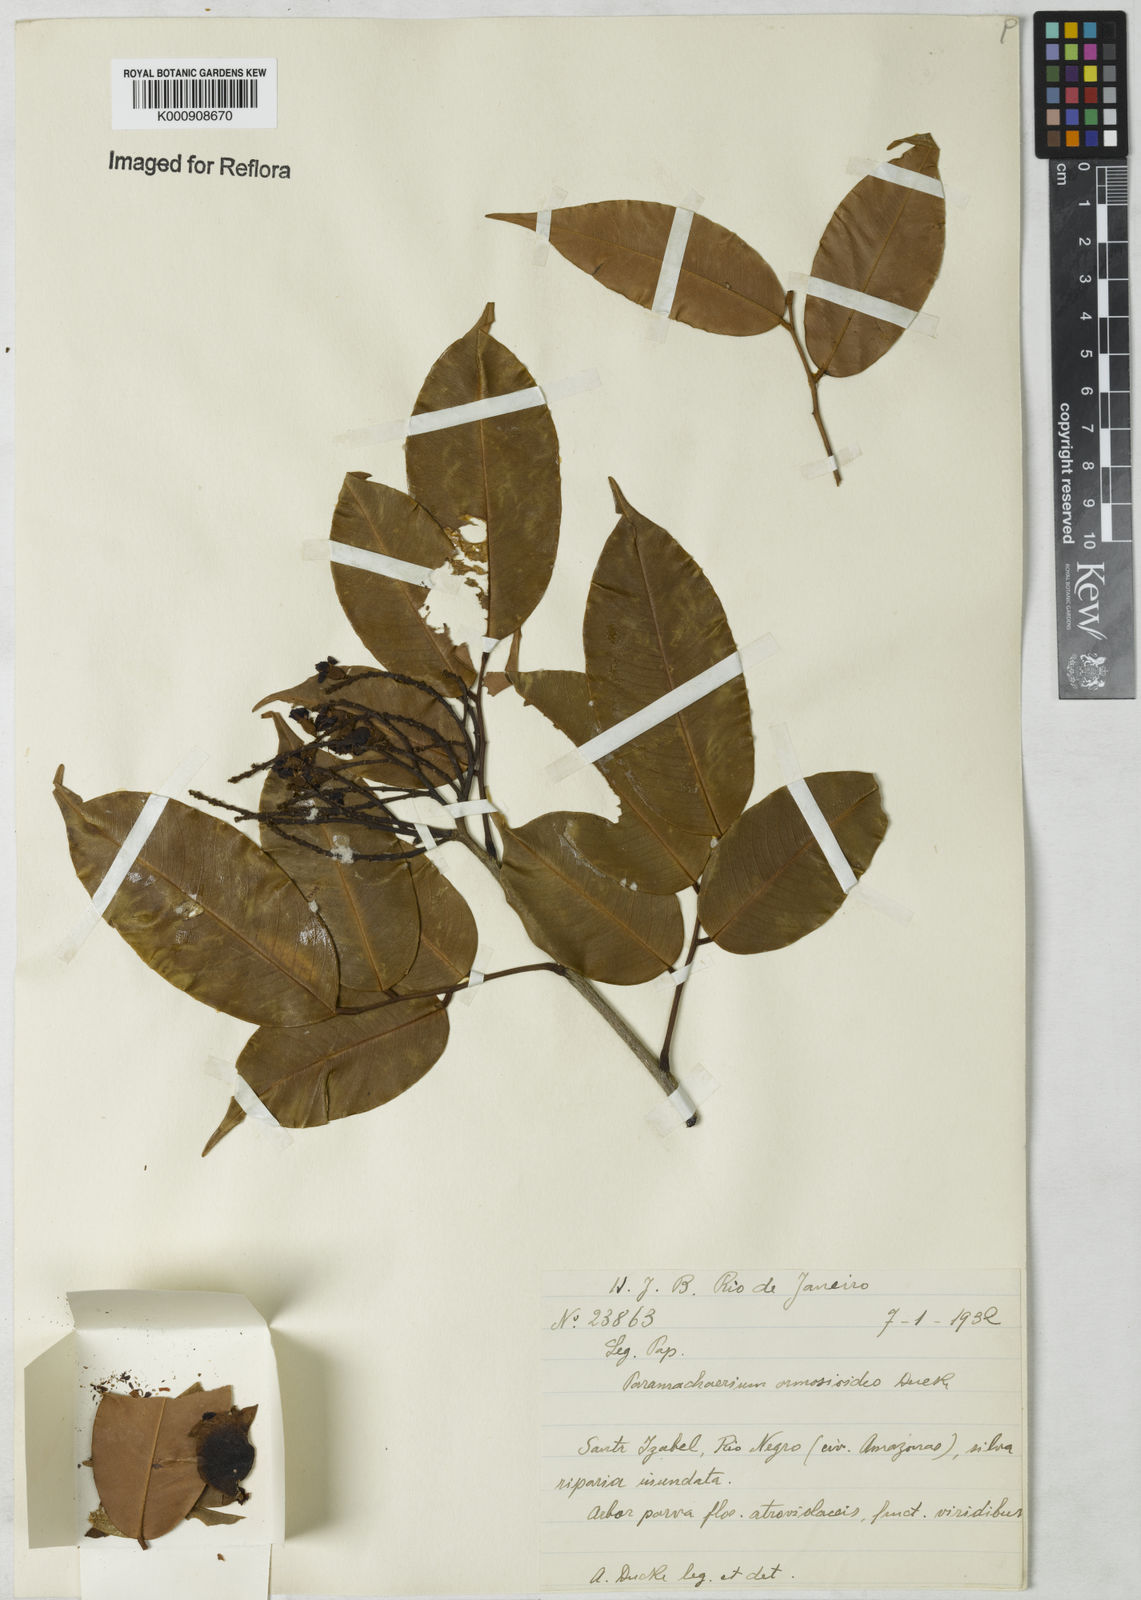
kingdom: Plantae
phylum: Tracheophyta
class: Magnoliopsida
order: Fabales
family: Fabaceae
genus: Paramachaerium
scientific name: Paramachaerium ormosioides
